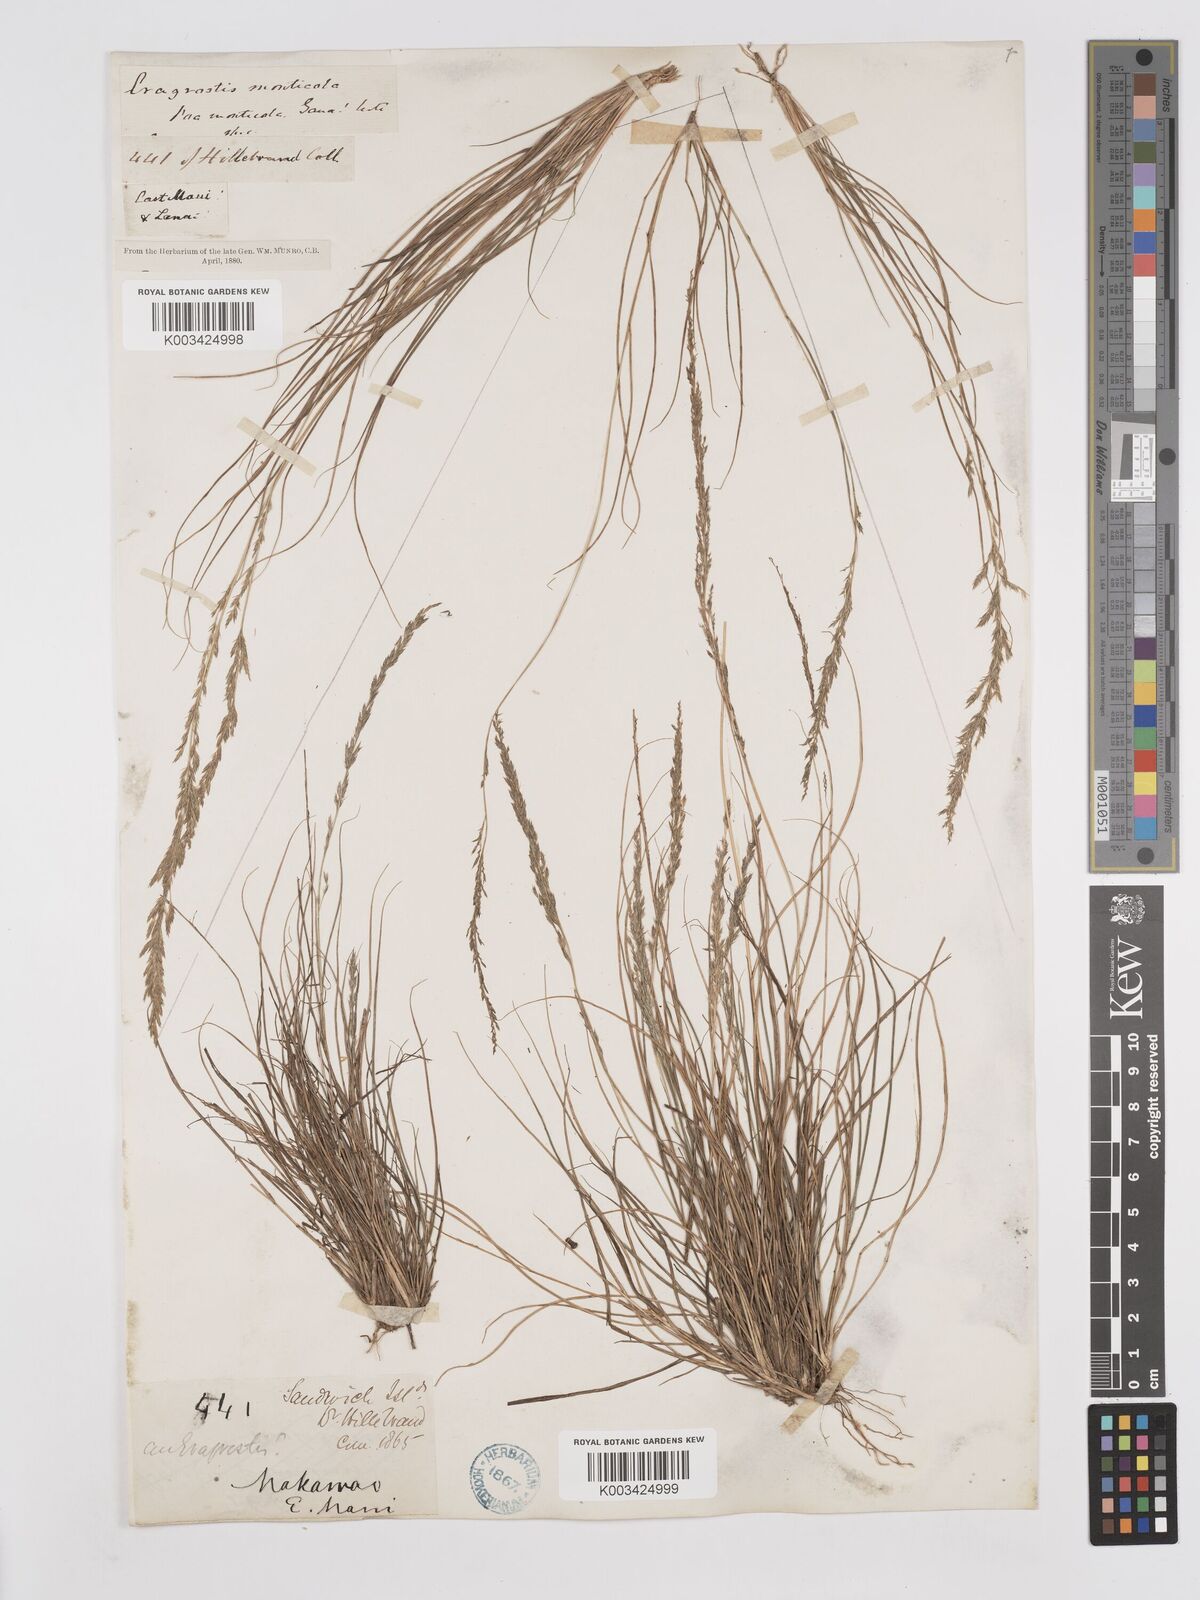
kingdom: Plantae
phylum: Tracheophyta
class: Liliopsida
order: Poales
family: Poaceae
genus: Eragrostis
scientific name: Eragrostis monticola
